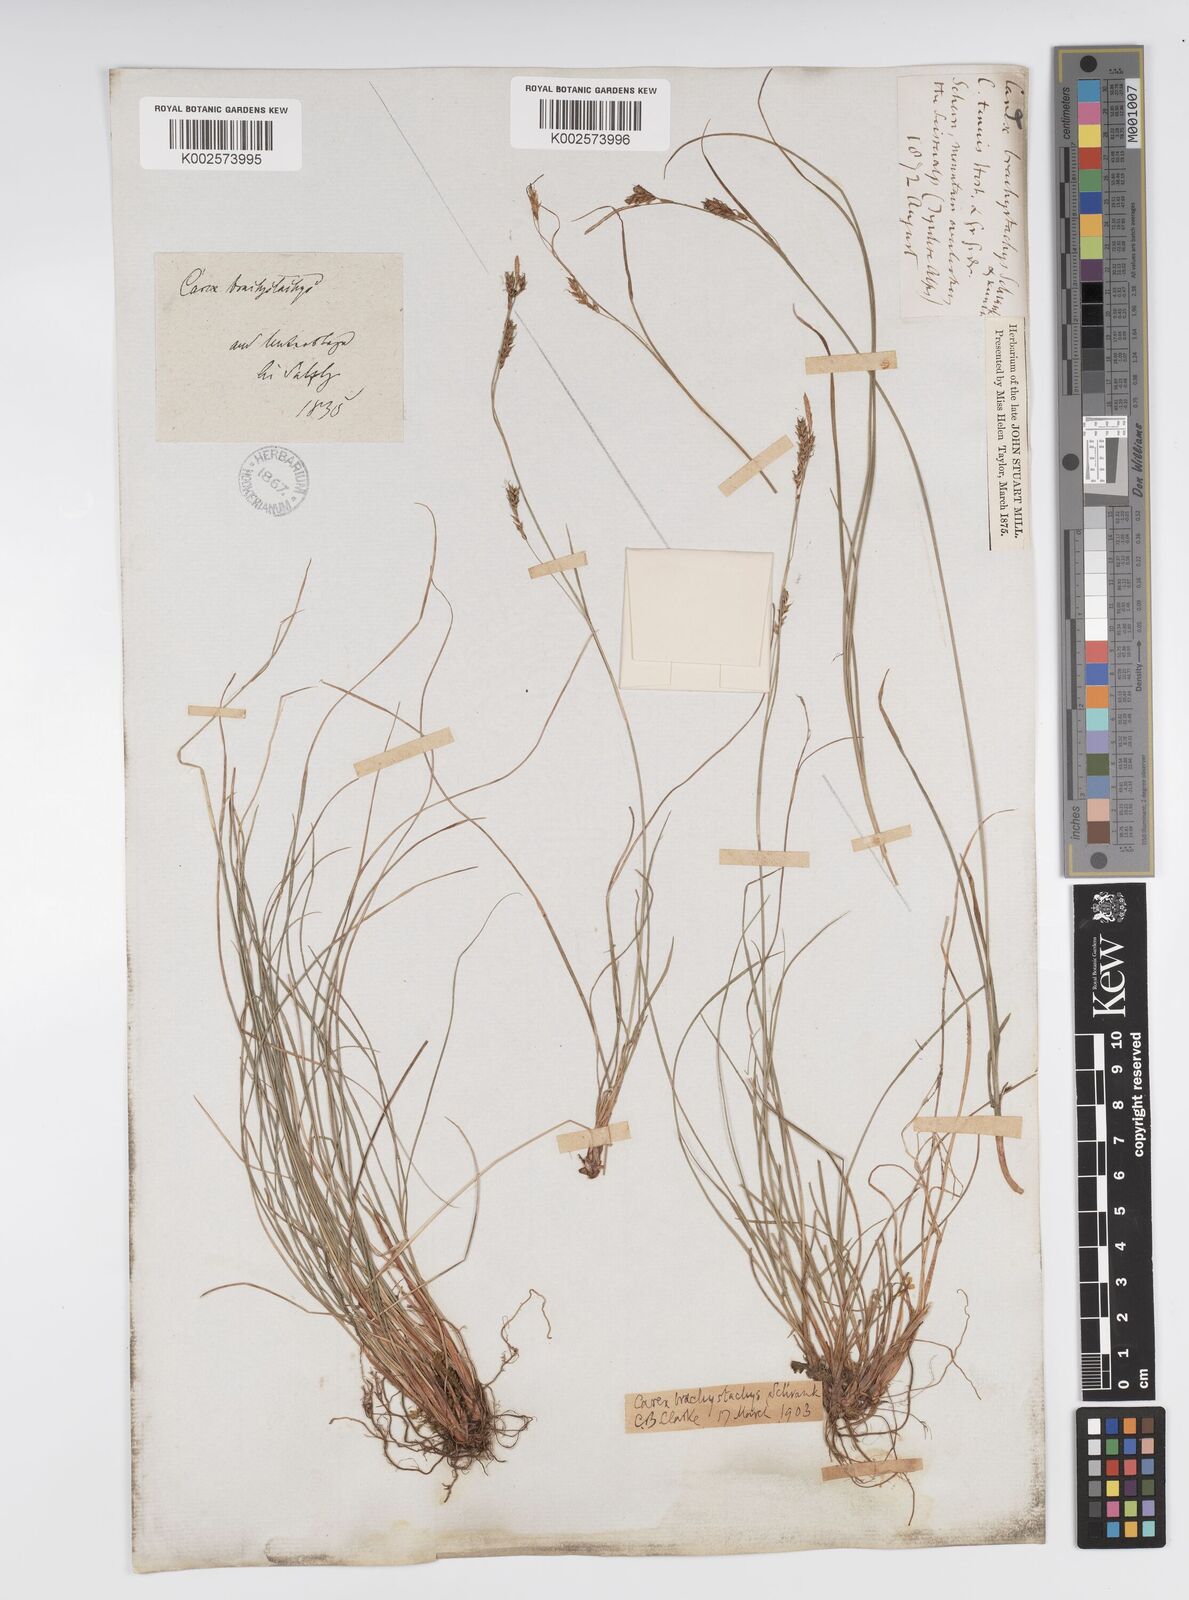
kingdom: Plantae
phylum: Tracheophyta
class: Liliopsida
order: Poales
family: Cyperaceae
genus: Carex
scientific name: Carex brachystachys
